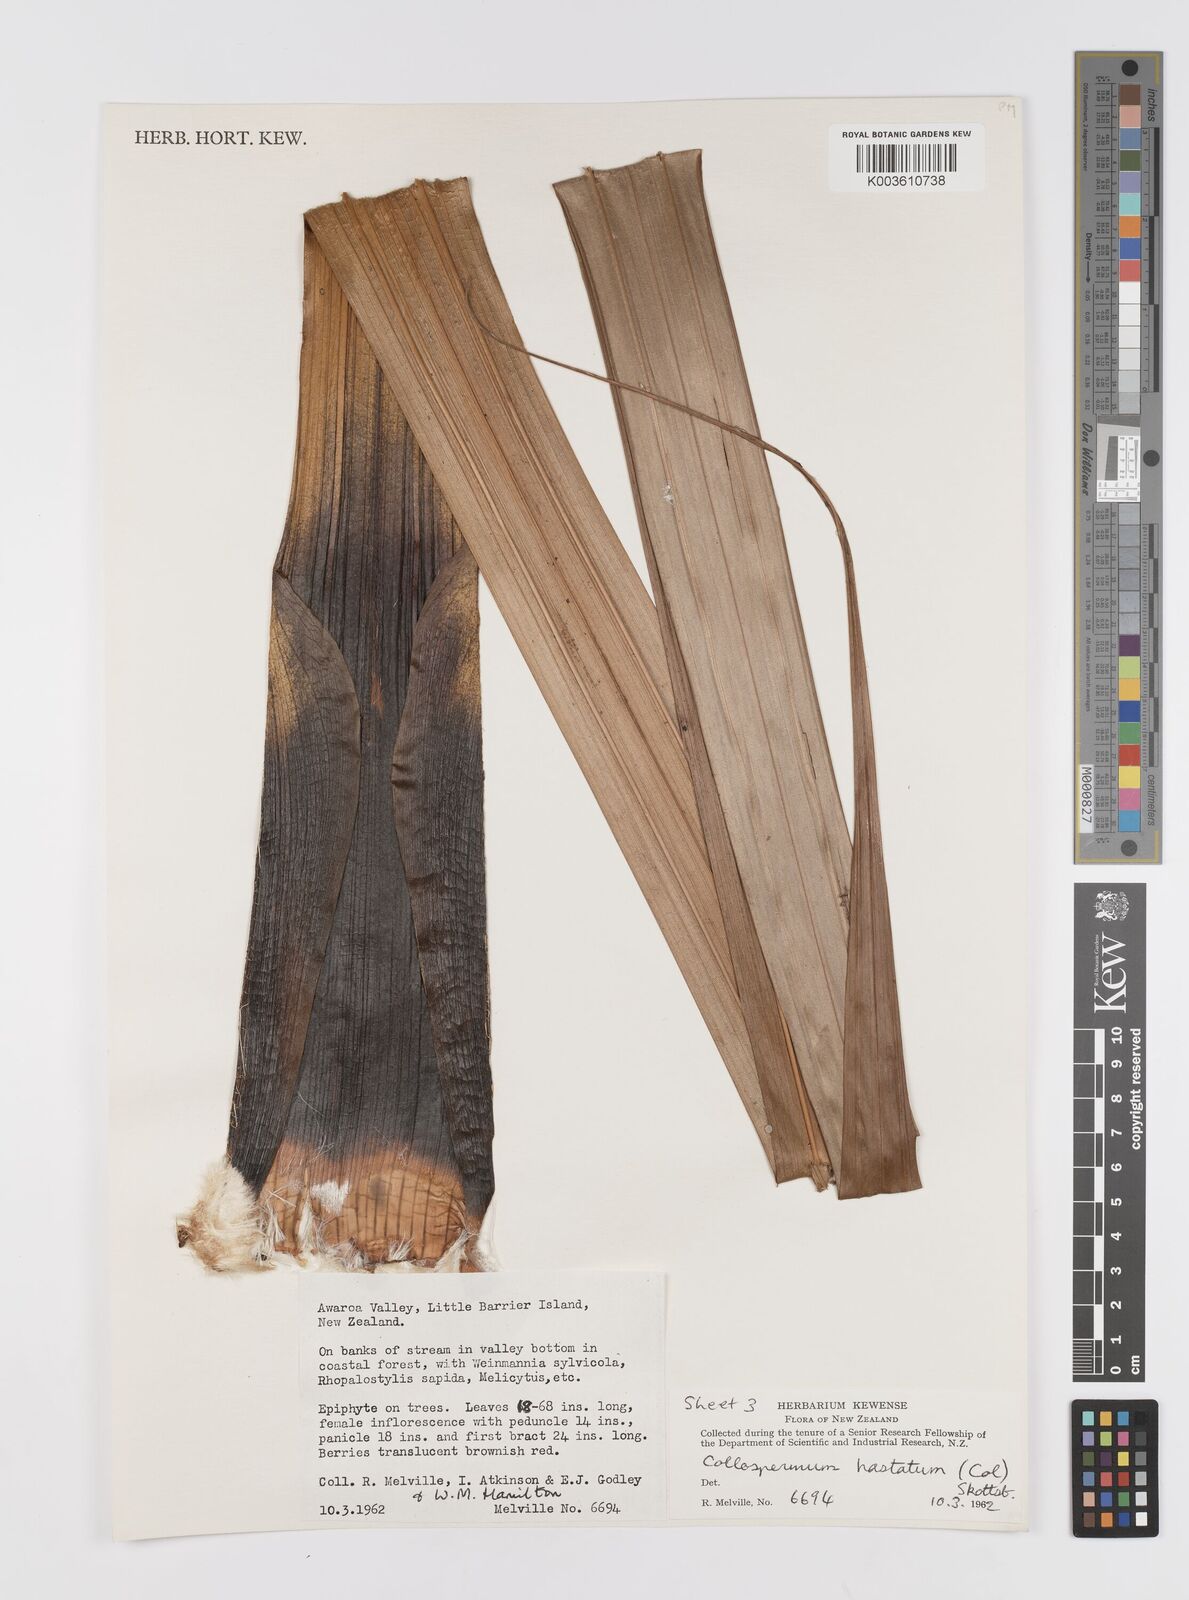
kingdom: Plantae
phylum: Tracheophyta
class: Liliopsida
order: Asparagales
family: Asteliaceae
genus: Astelia
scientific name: Astelia hastata
